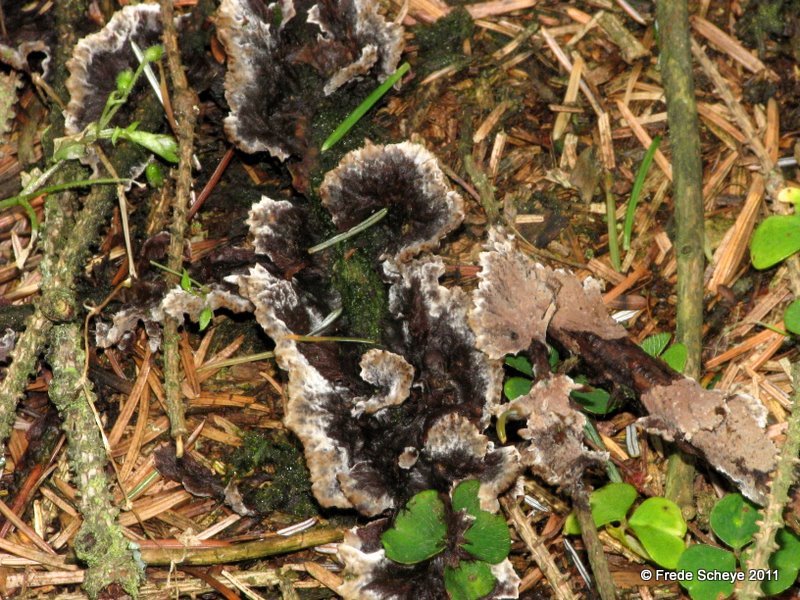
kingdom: Fungi
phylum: Basidiomycota
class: Agaricomycetes
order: Thelephorales
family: Thelephoraceae
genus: Thelephora
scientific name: Thelephora terrestris
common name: fliget frynsesvamp
